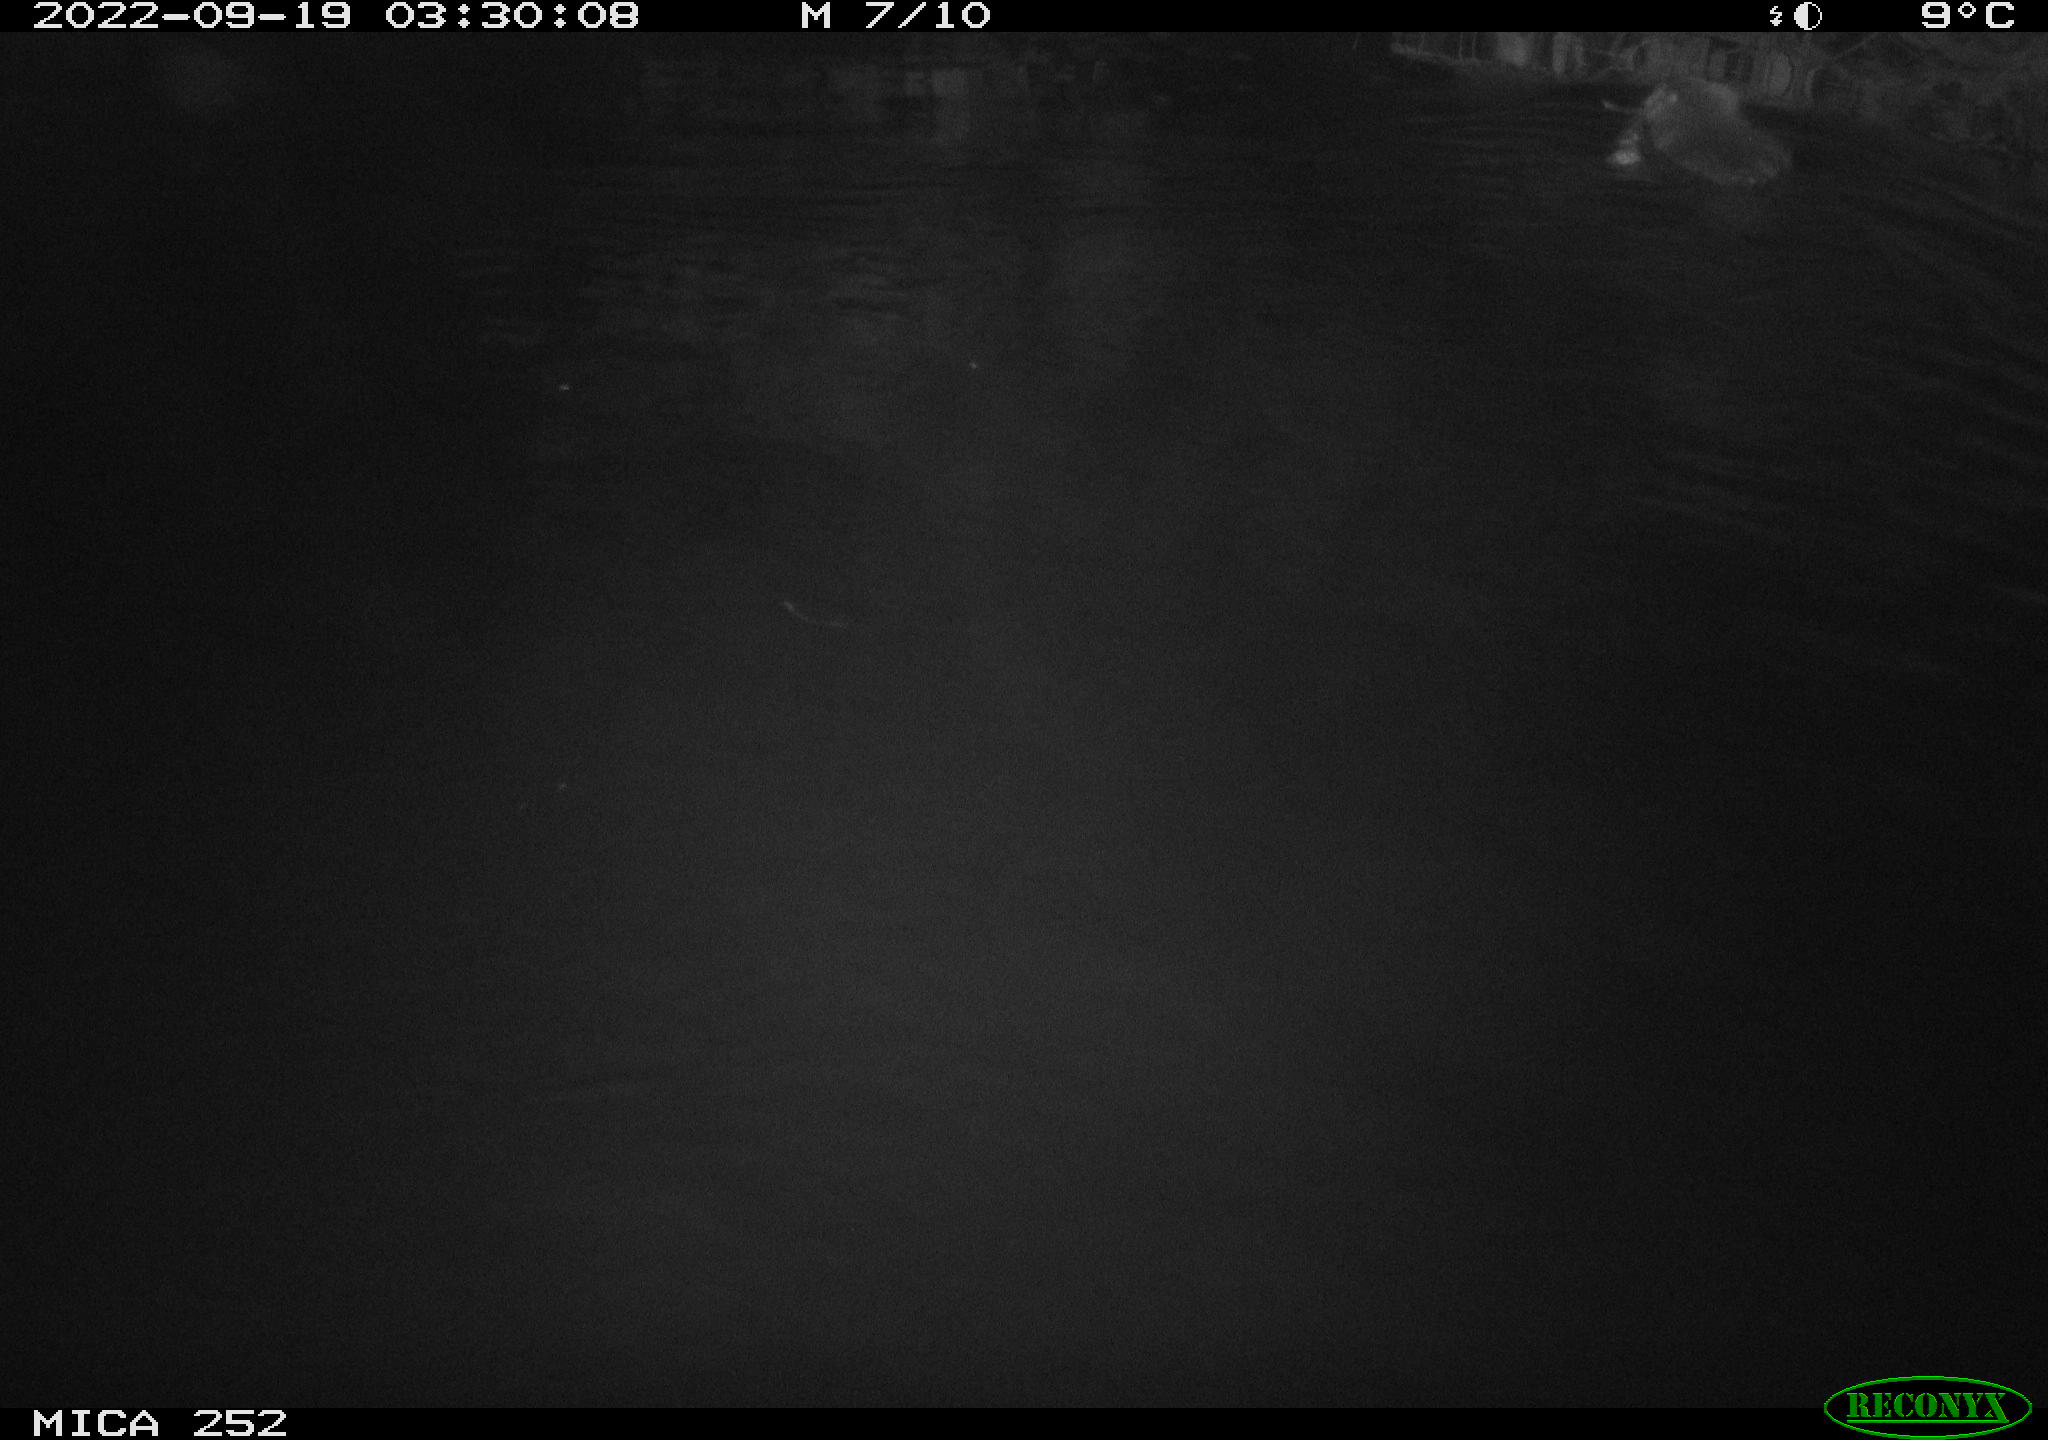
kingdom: Animalia
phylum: Chordata
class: Mammalia
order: Rodentia
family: Castoridae
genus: Castor
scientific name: Castor fiber
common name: Eurasian beaver
